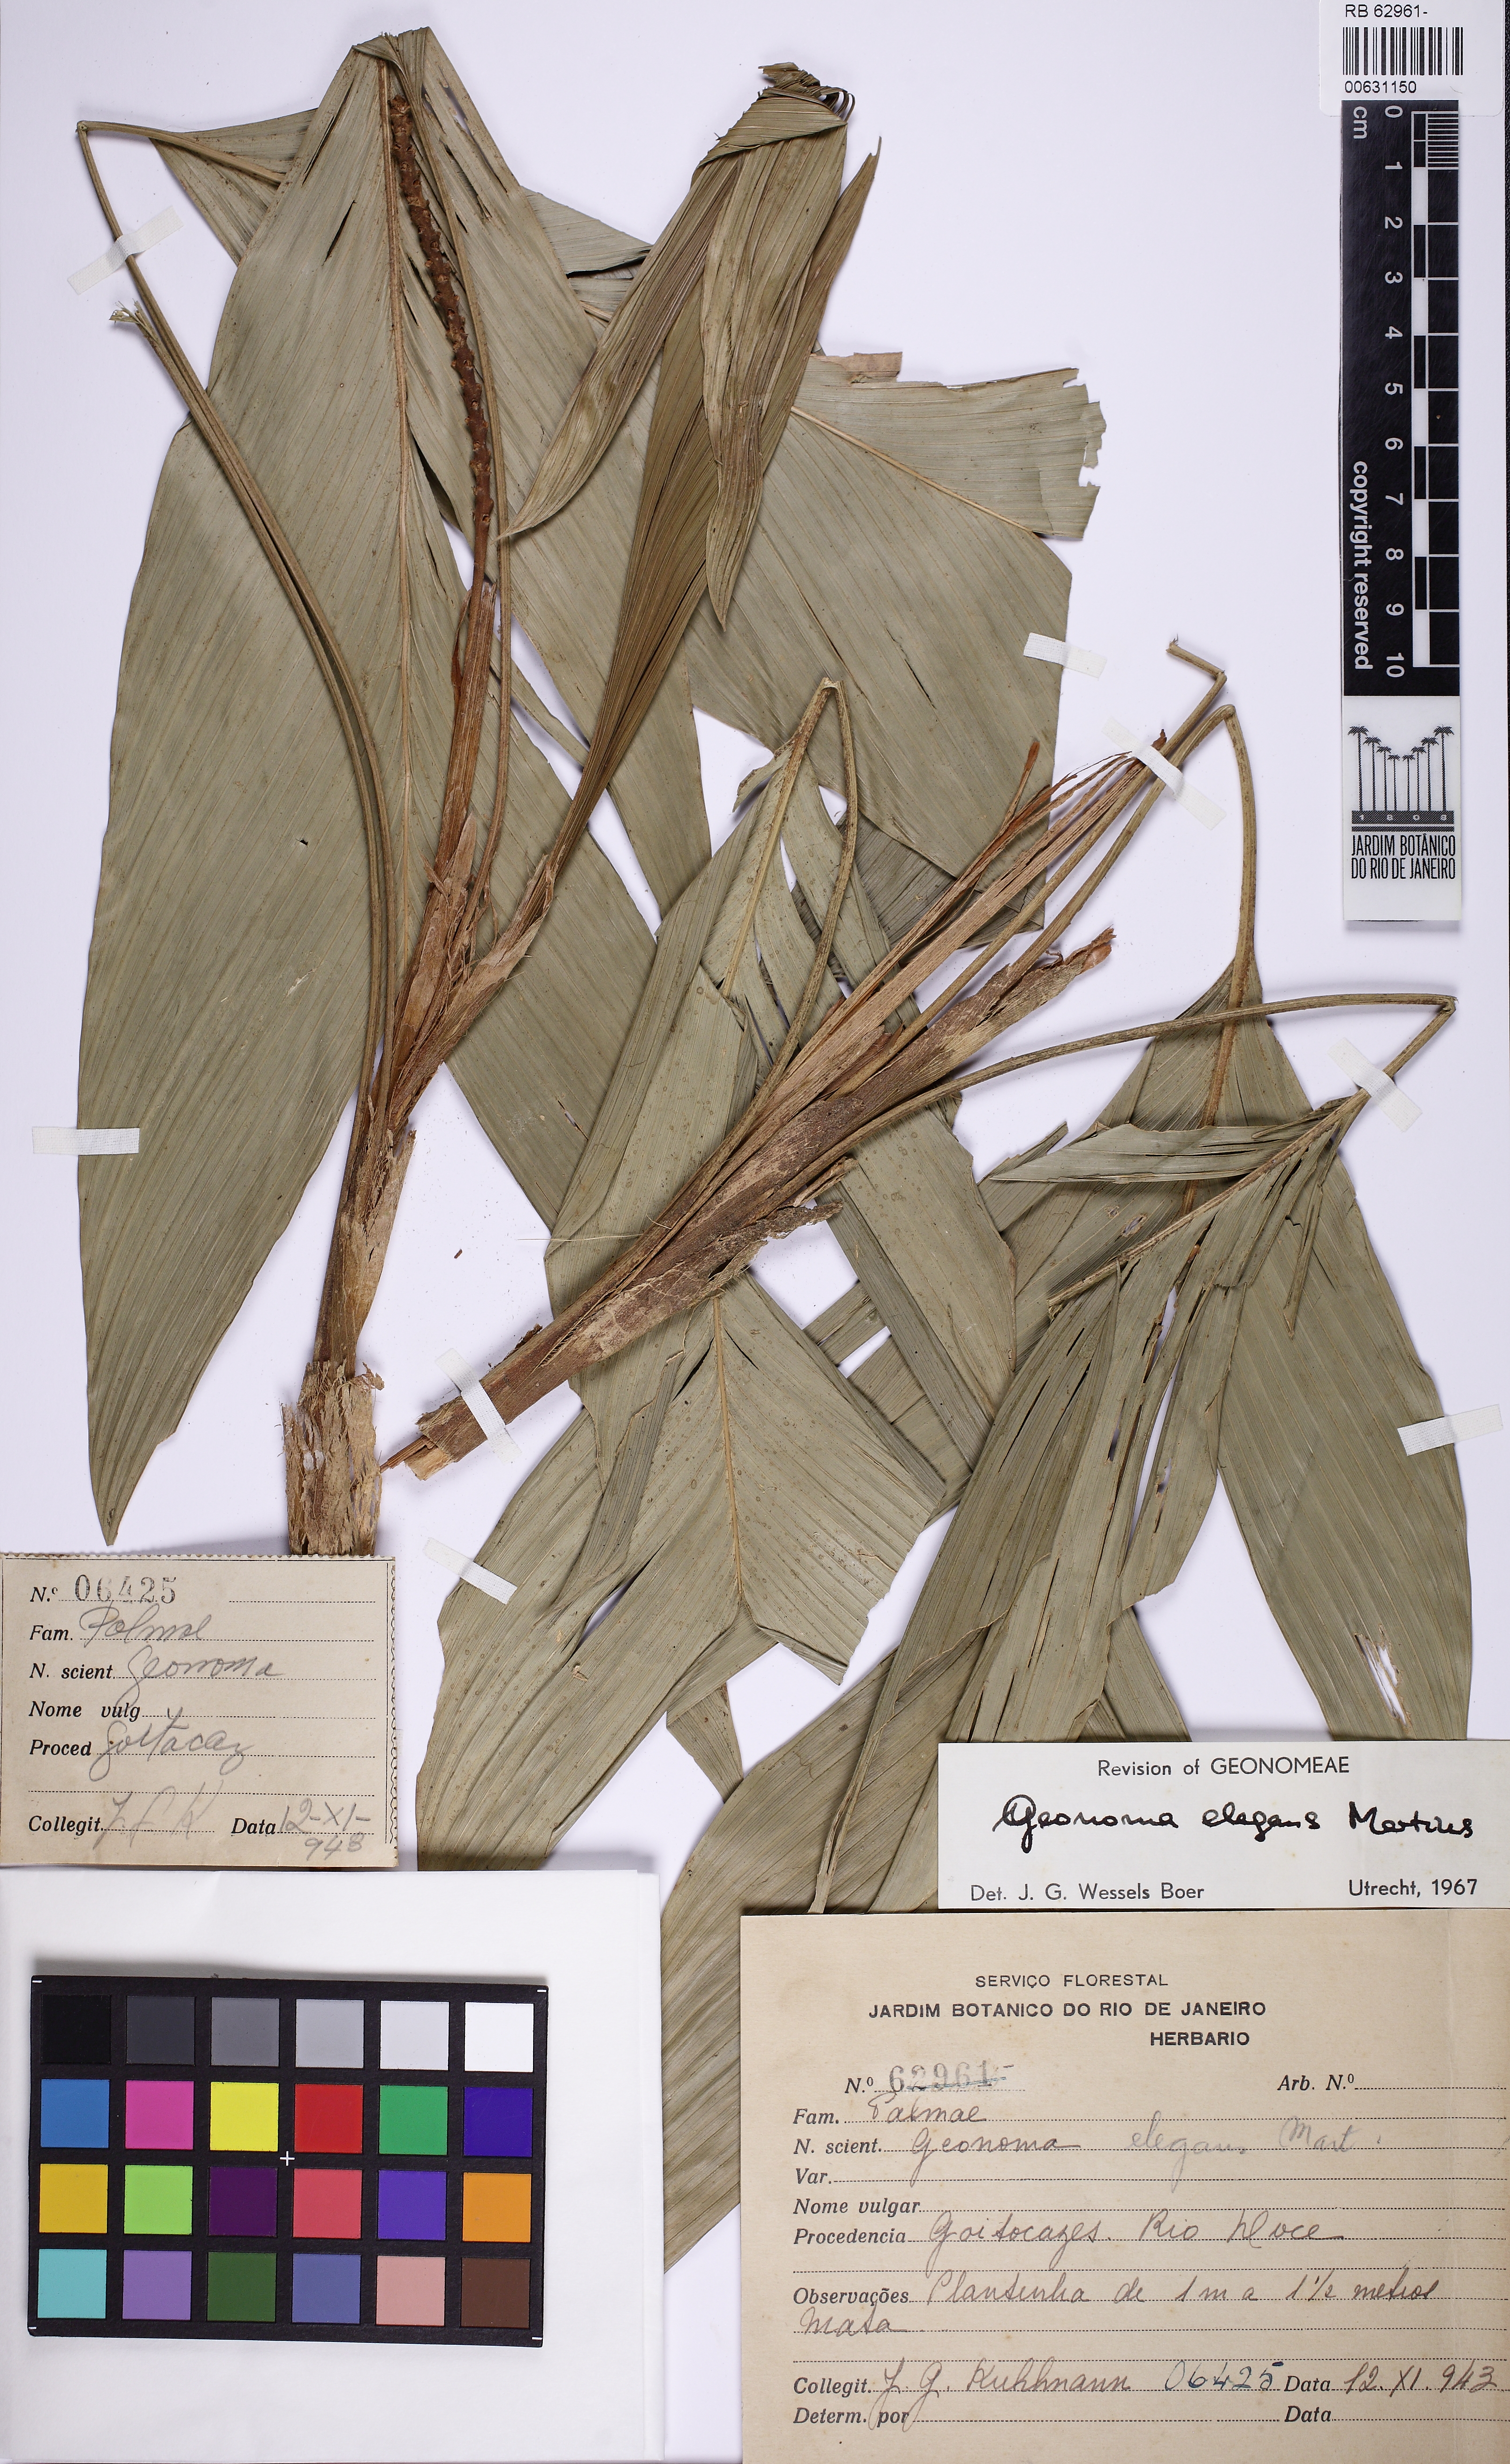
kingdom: Plantae
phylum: Tracheophyta
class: Liliopsida
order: Arecales
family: Arecaceae
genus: Geonoma
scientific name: Geonoma elegans
